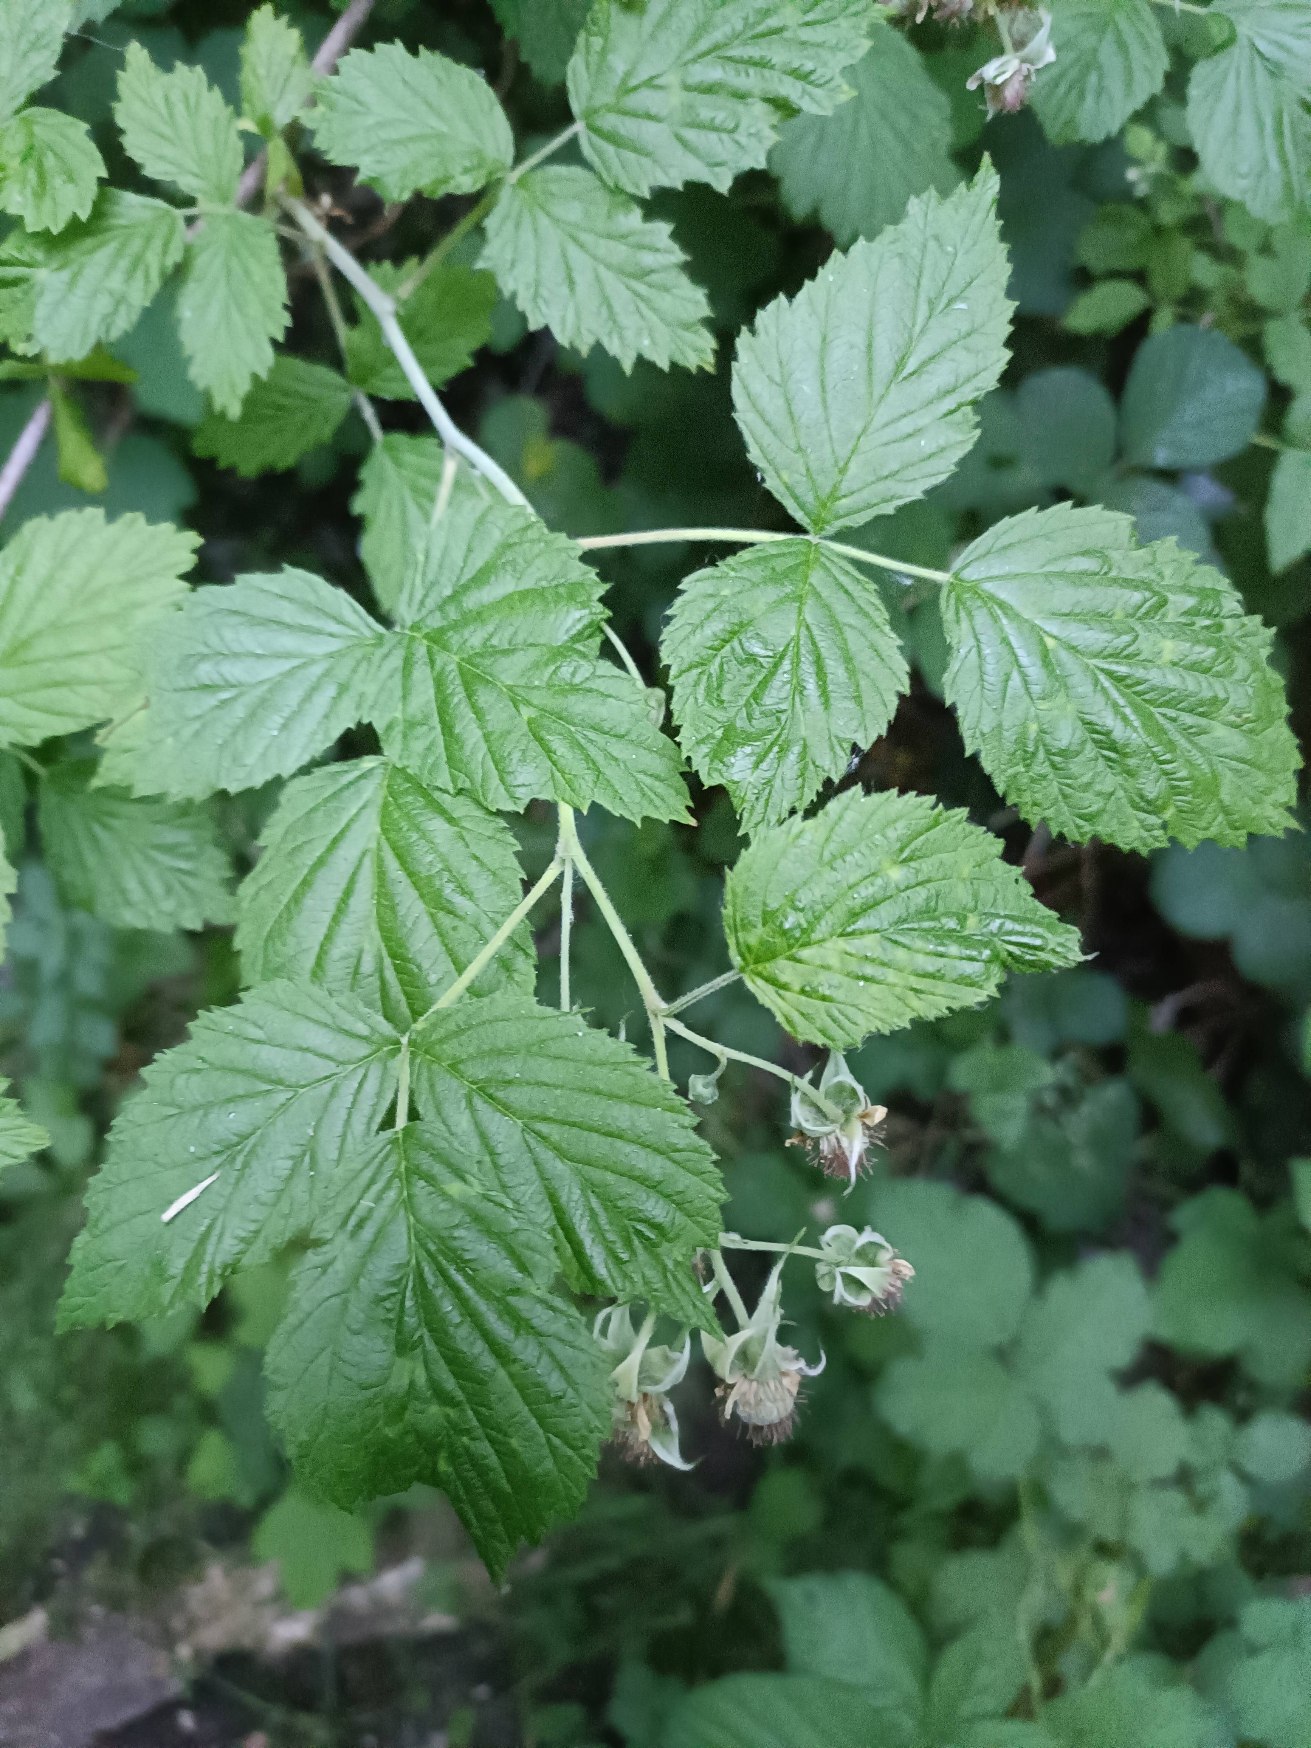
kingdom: Plantae
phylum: Tracheophyta
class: Magnoliopsida
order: Rosales
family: Rosaceae
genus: Rubus
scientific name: Rubus idaeus
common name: Hindbær
